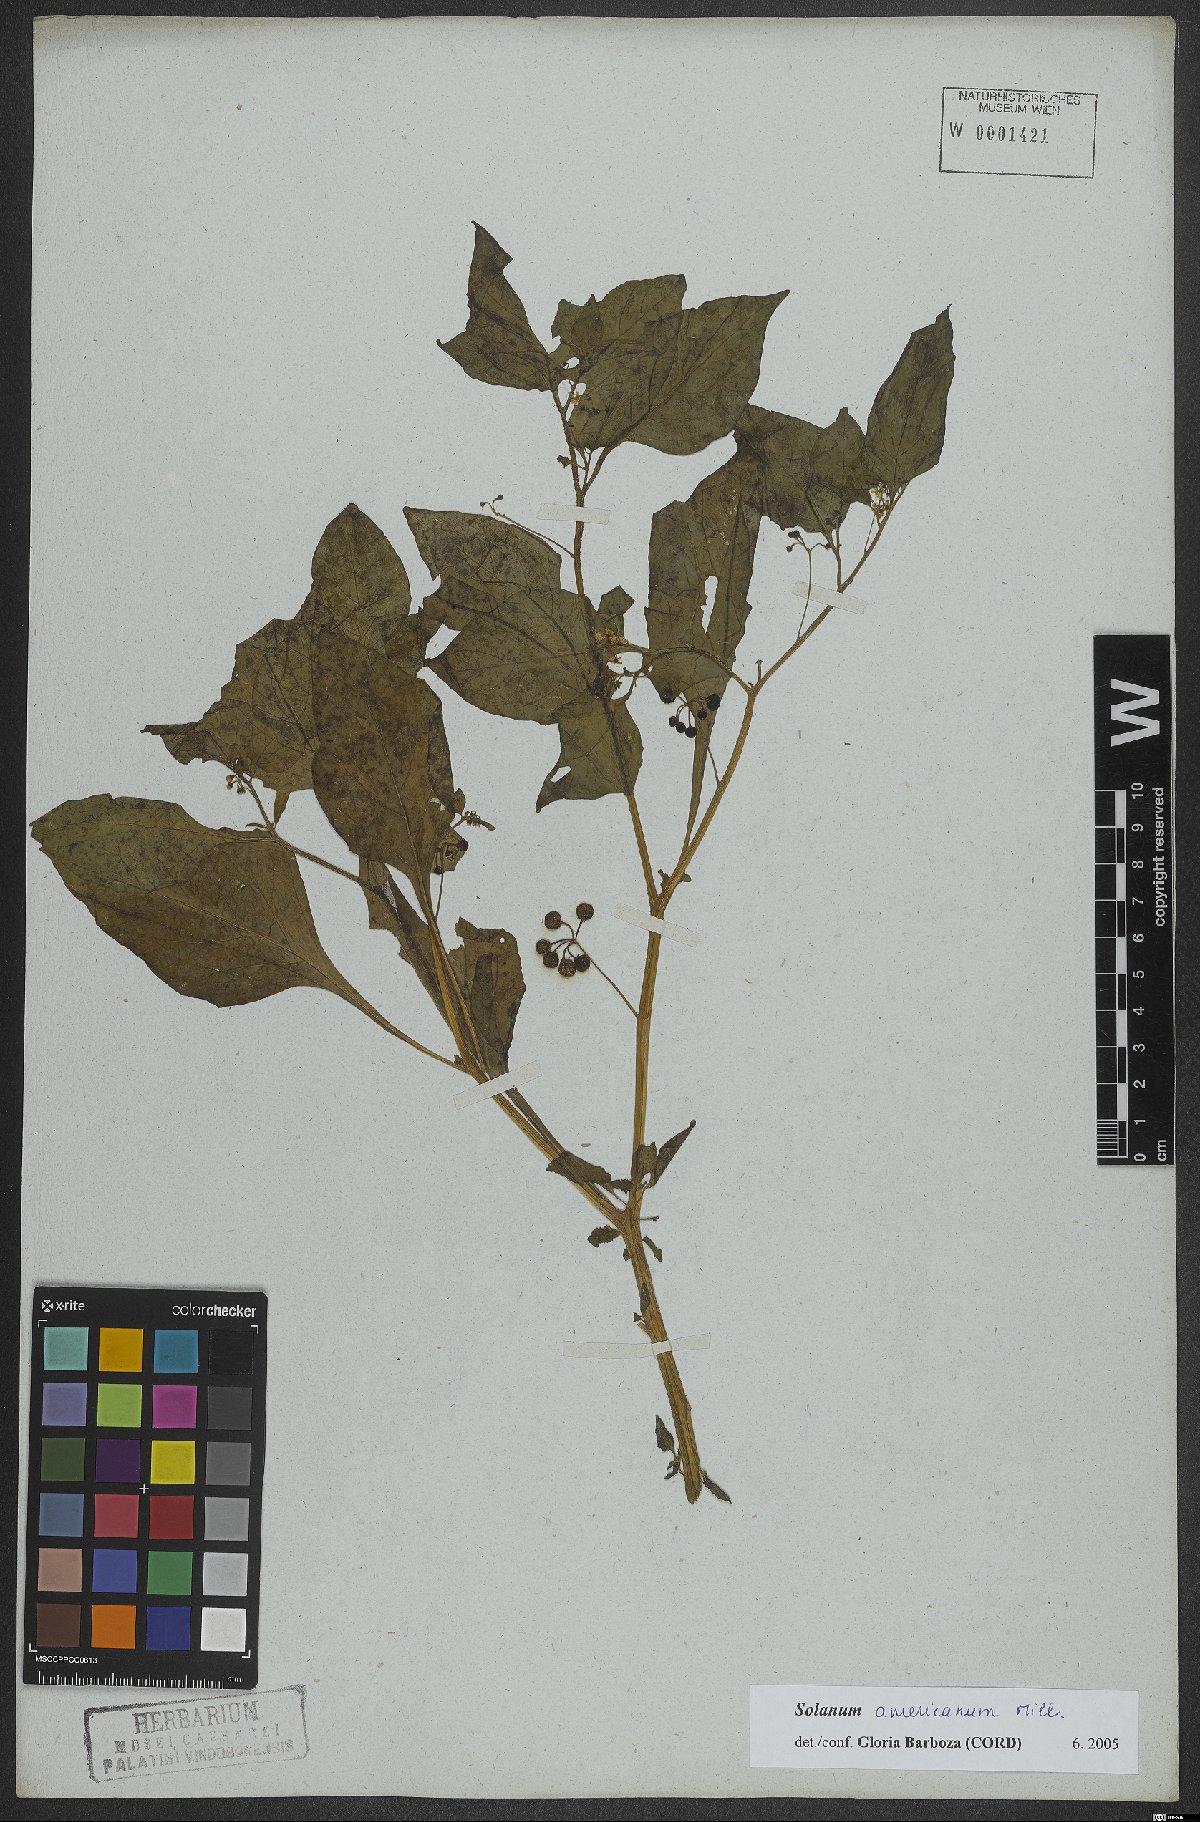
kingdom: Plantae
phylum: Tracheophyta
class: Magnoliopsida
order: Solanales
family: Solanaceae
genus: Solanum
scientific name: Solanum americanum
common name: American black nightshade
